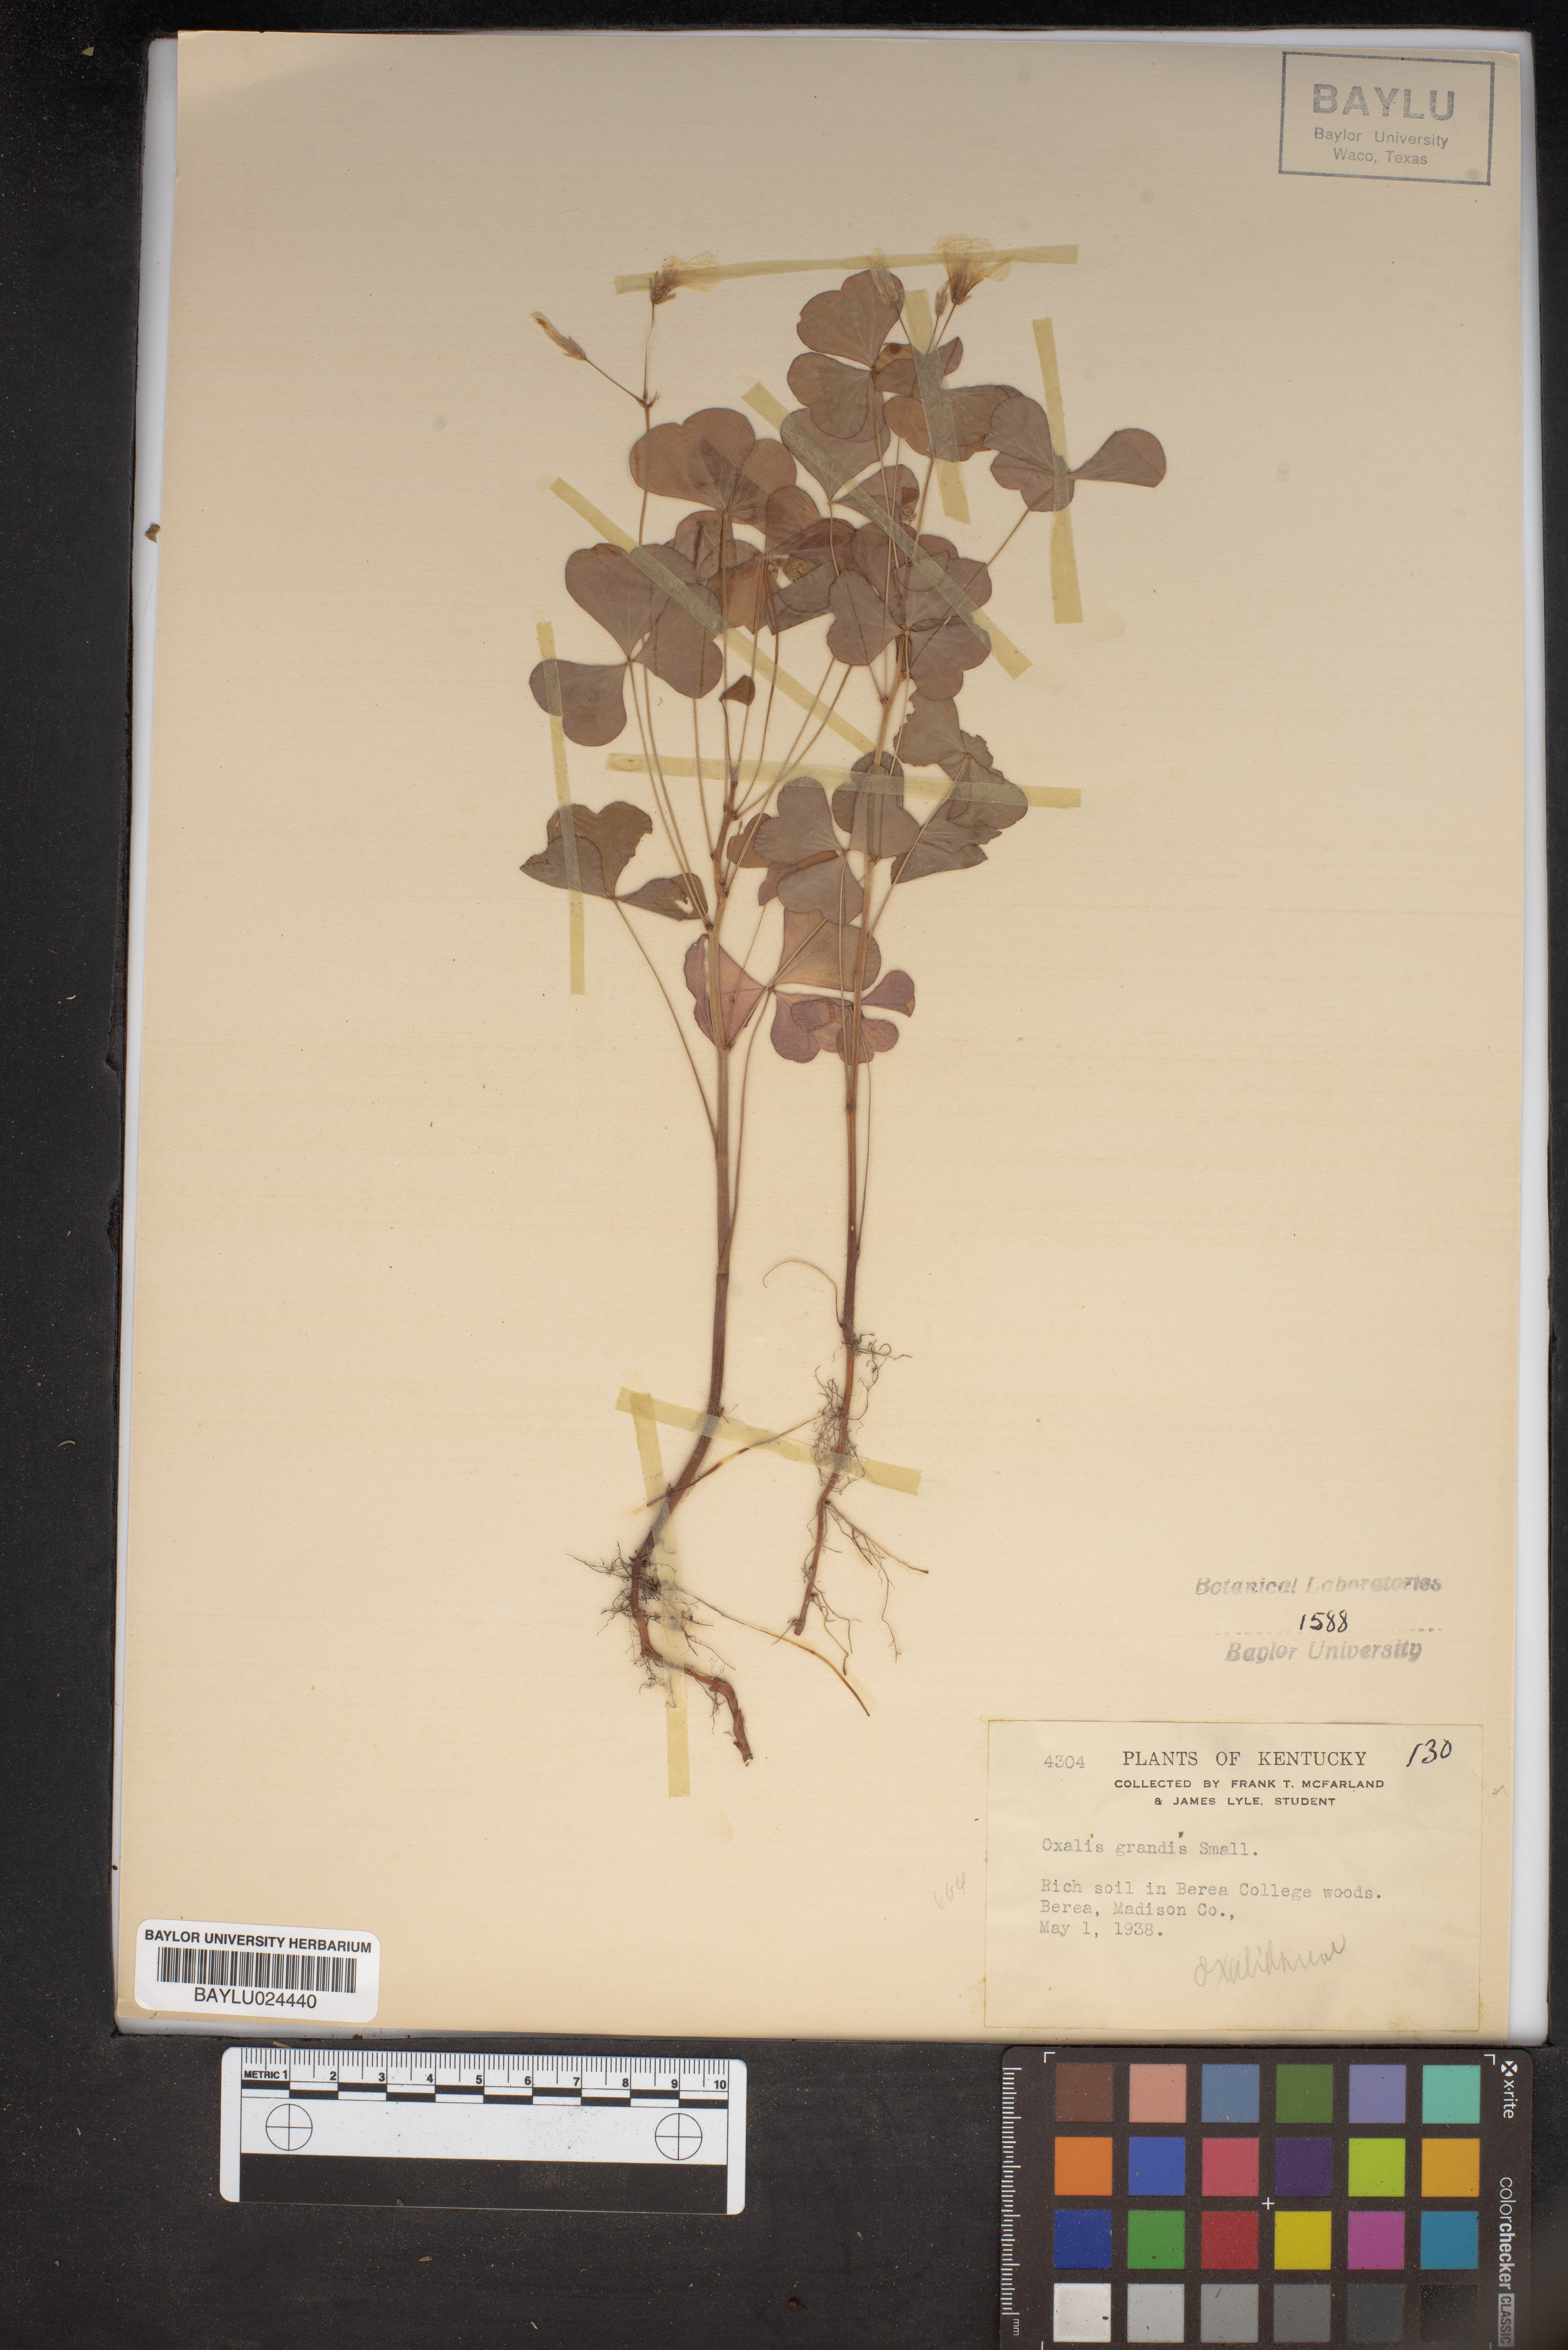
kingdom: Plantae
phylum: Tracheophyta
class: Magnoliopsida
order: Oxalidales
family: Oxalidaceae
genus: Oxalis
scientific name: Oxalis grandis
